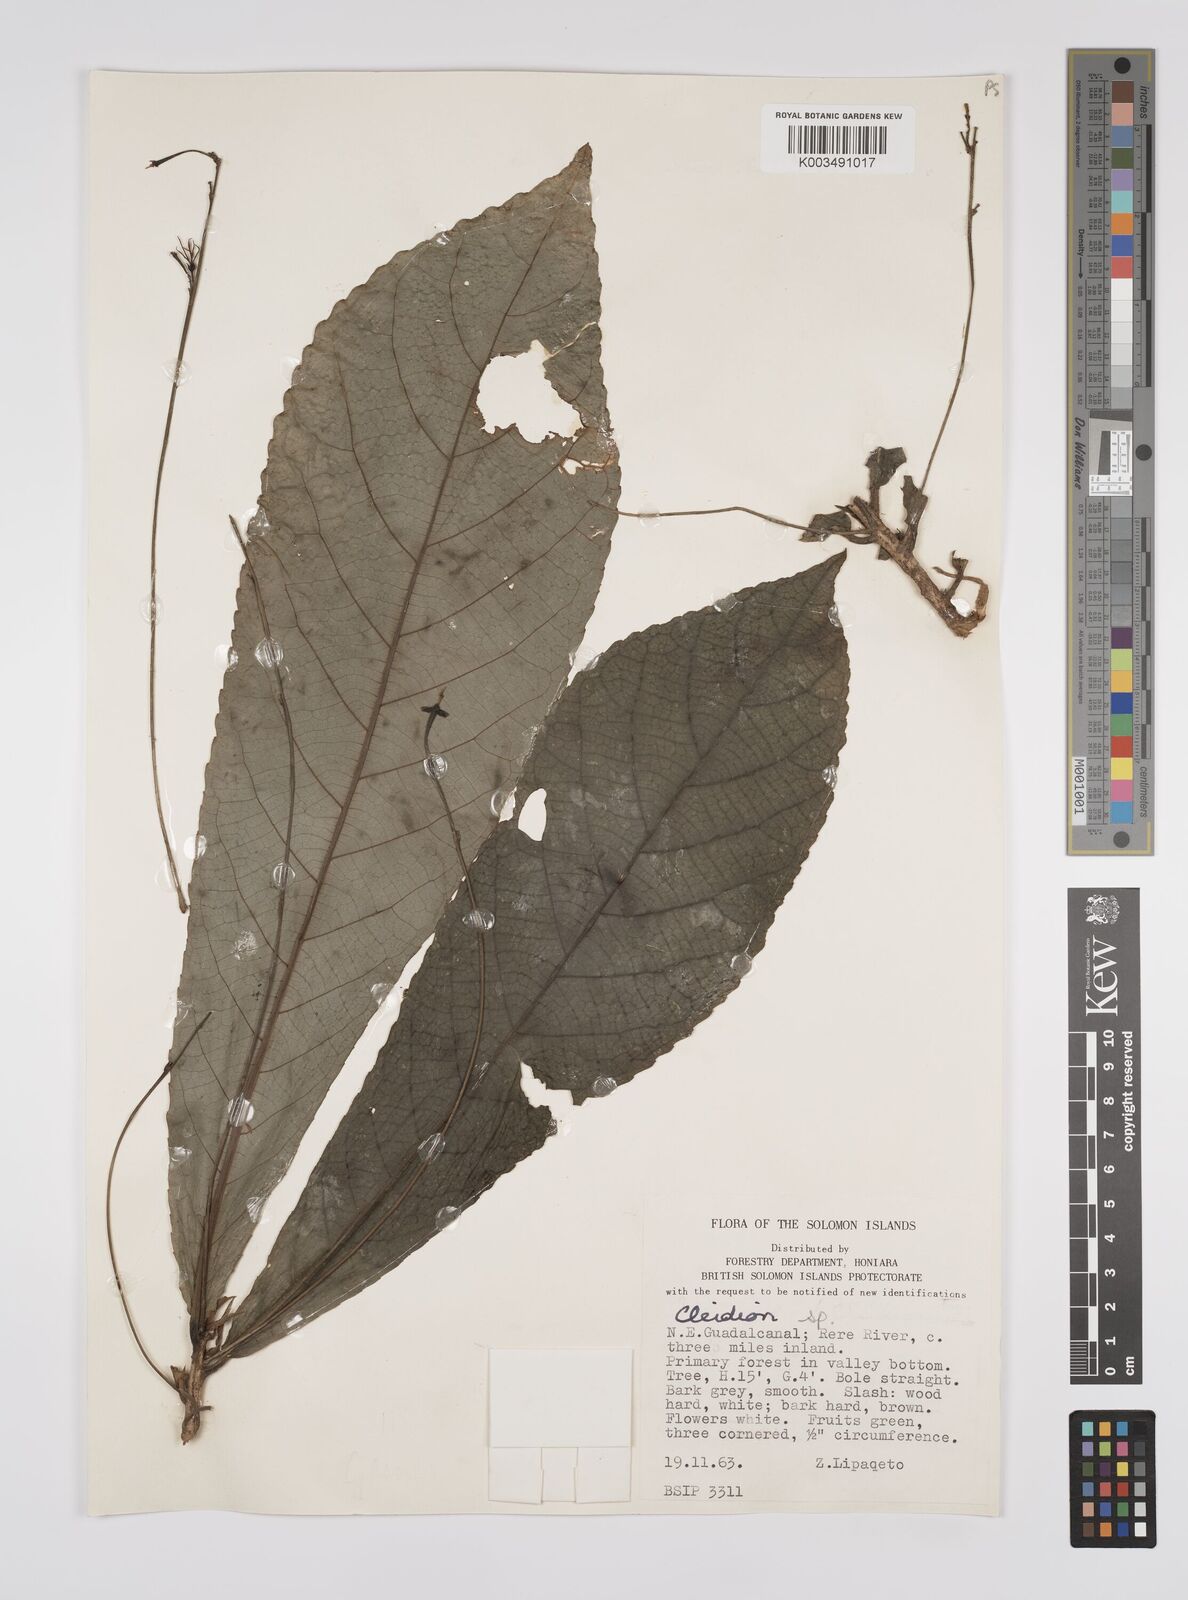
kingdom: Plantae
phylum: Tracheophyta
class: Magnoliopsida
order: Malpighiales
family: Euphorbiaceae
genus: Cleidion
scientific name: Cleidion papuanum
